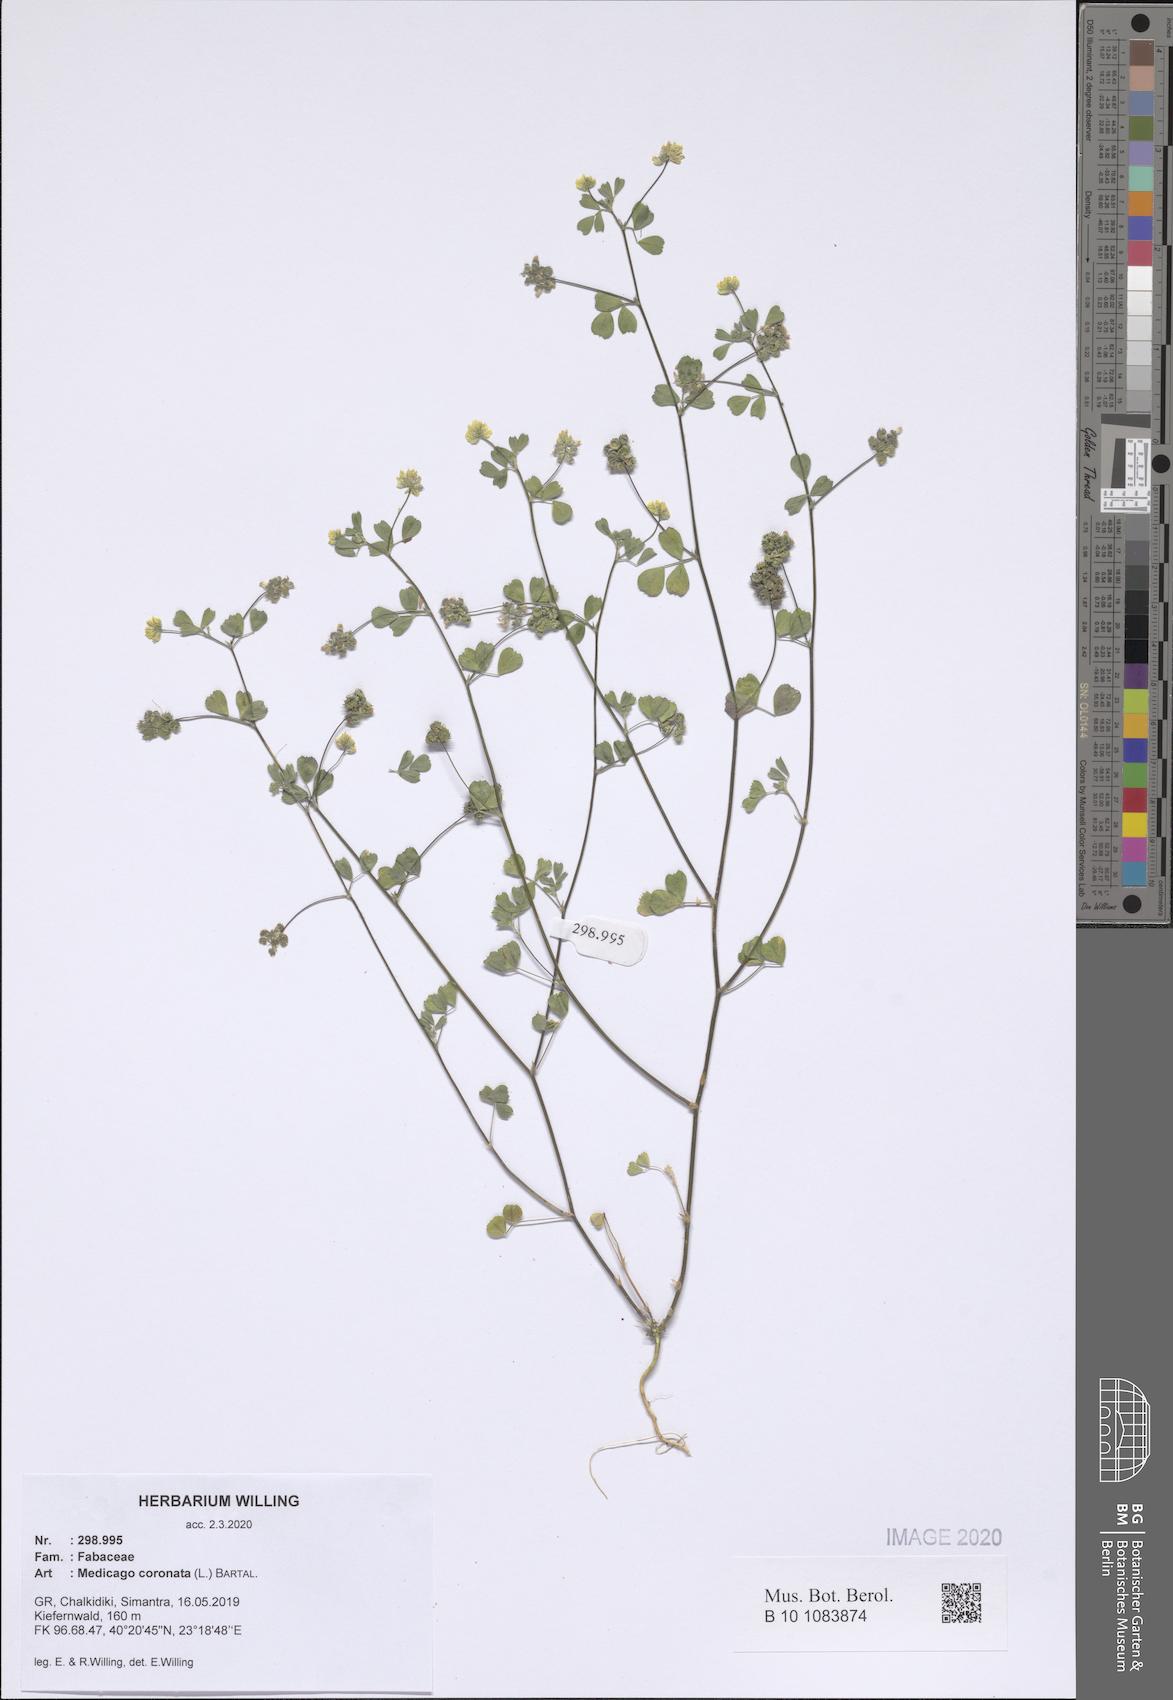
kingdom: Plantae
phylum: Tracheophyta
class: Magnoliopsida
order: Fabales
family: Fabaceae
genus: Medicago
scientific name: Medicago coronata
